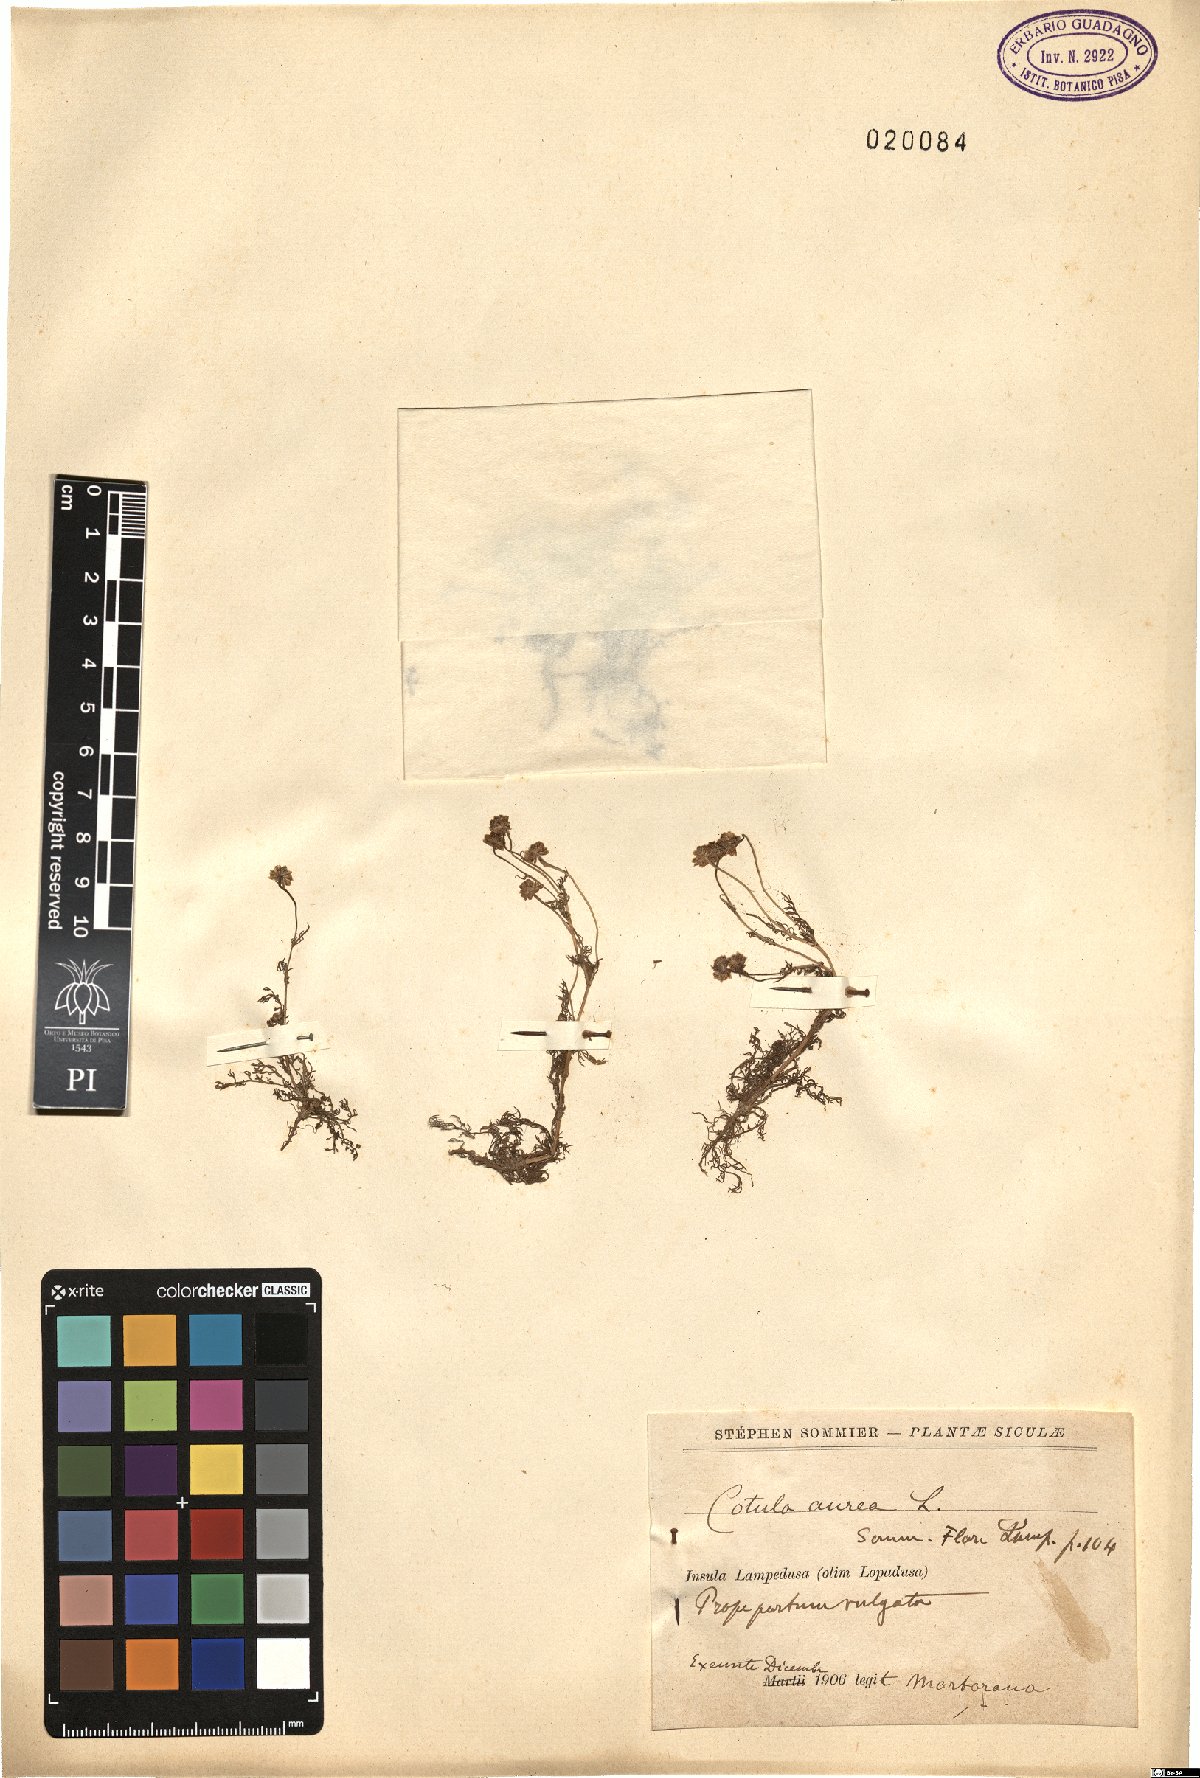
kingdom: Plantae
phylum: Tracheophyta
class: Magnoliopsida
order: Asterales
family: Asteraceae
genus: Matricaria
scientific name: Matricaria aurea
